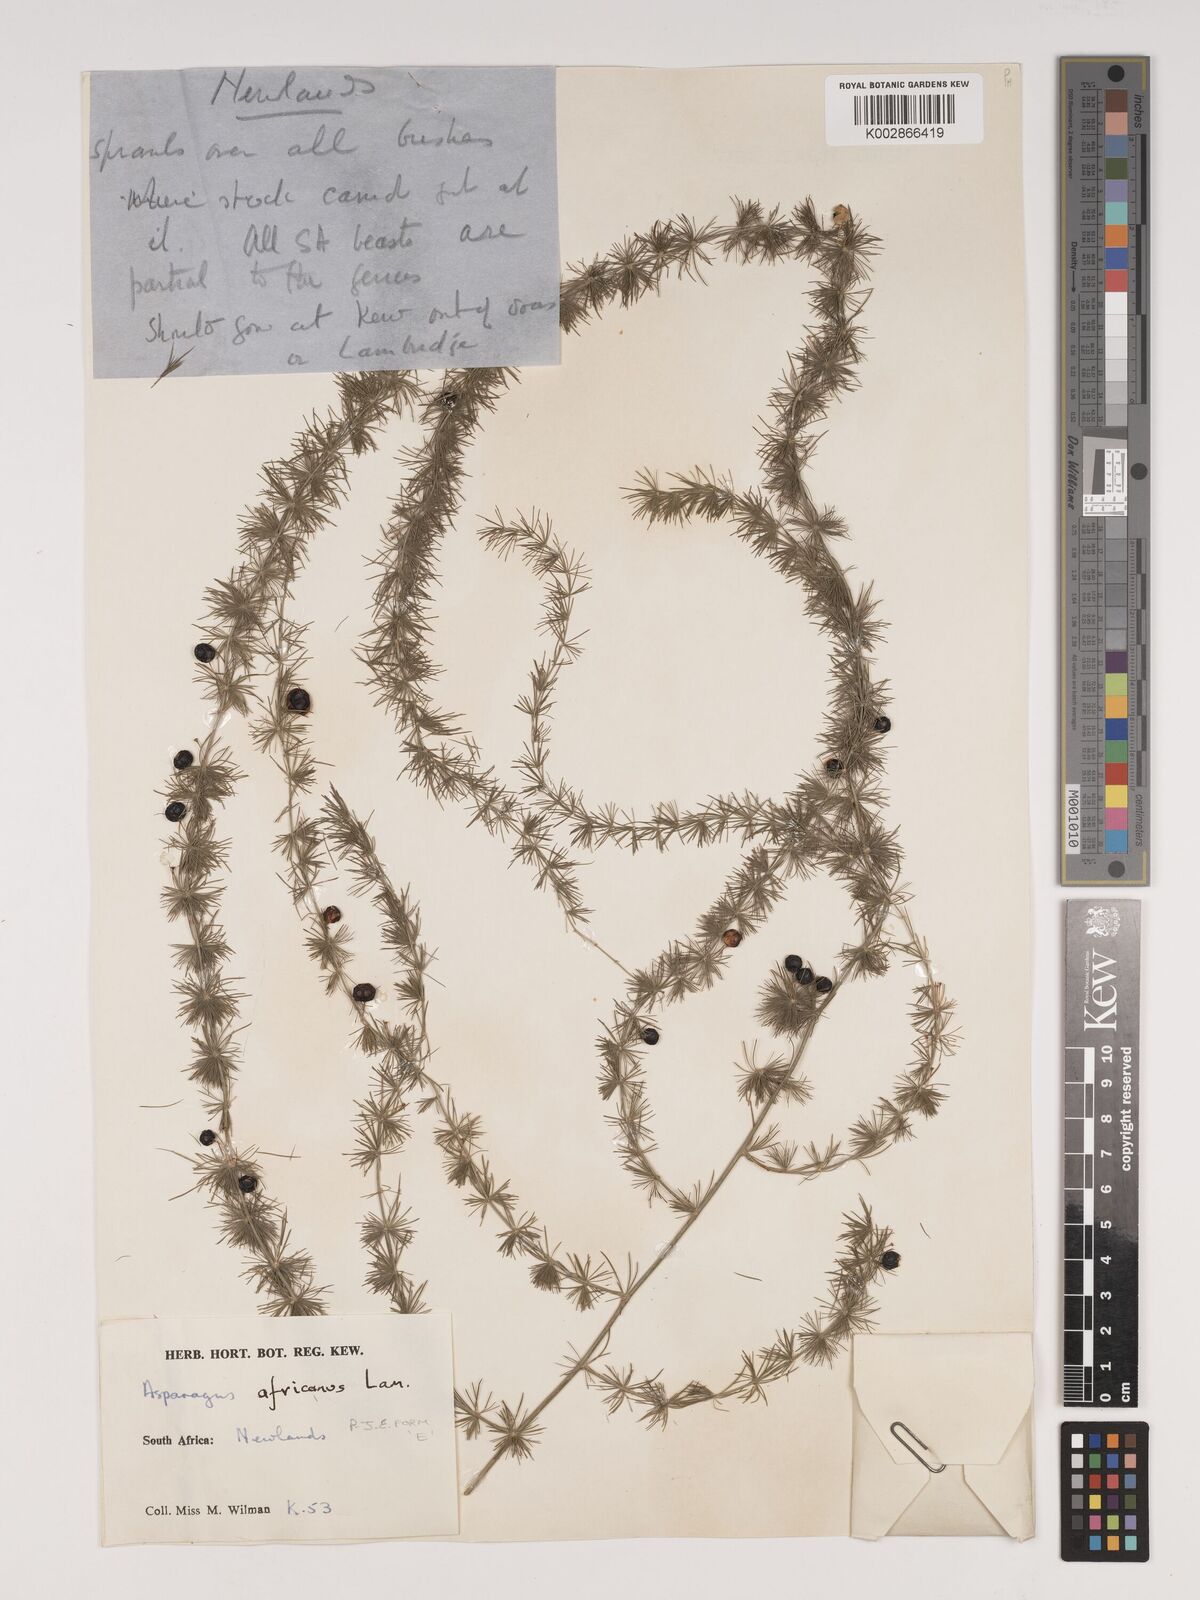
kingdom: Plantae
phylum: Tracheophyta
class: Liliopsida
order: Asparagales
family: Asparagaceae
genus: Asparagus
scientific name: Asparagus africanus
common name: Asparagus-fern
